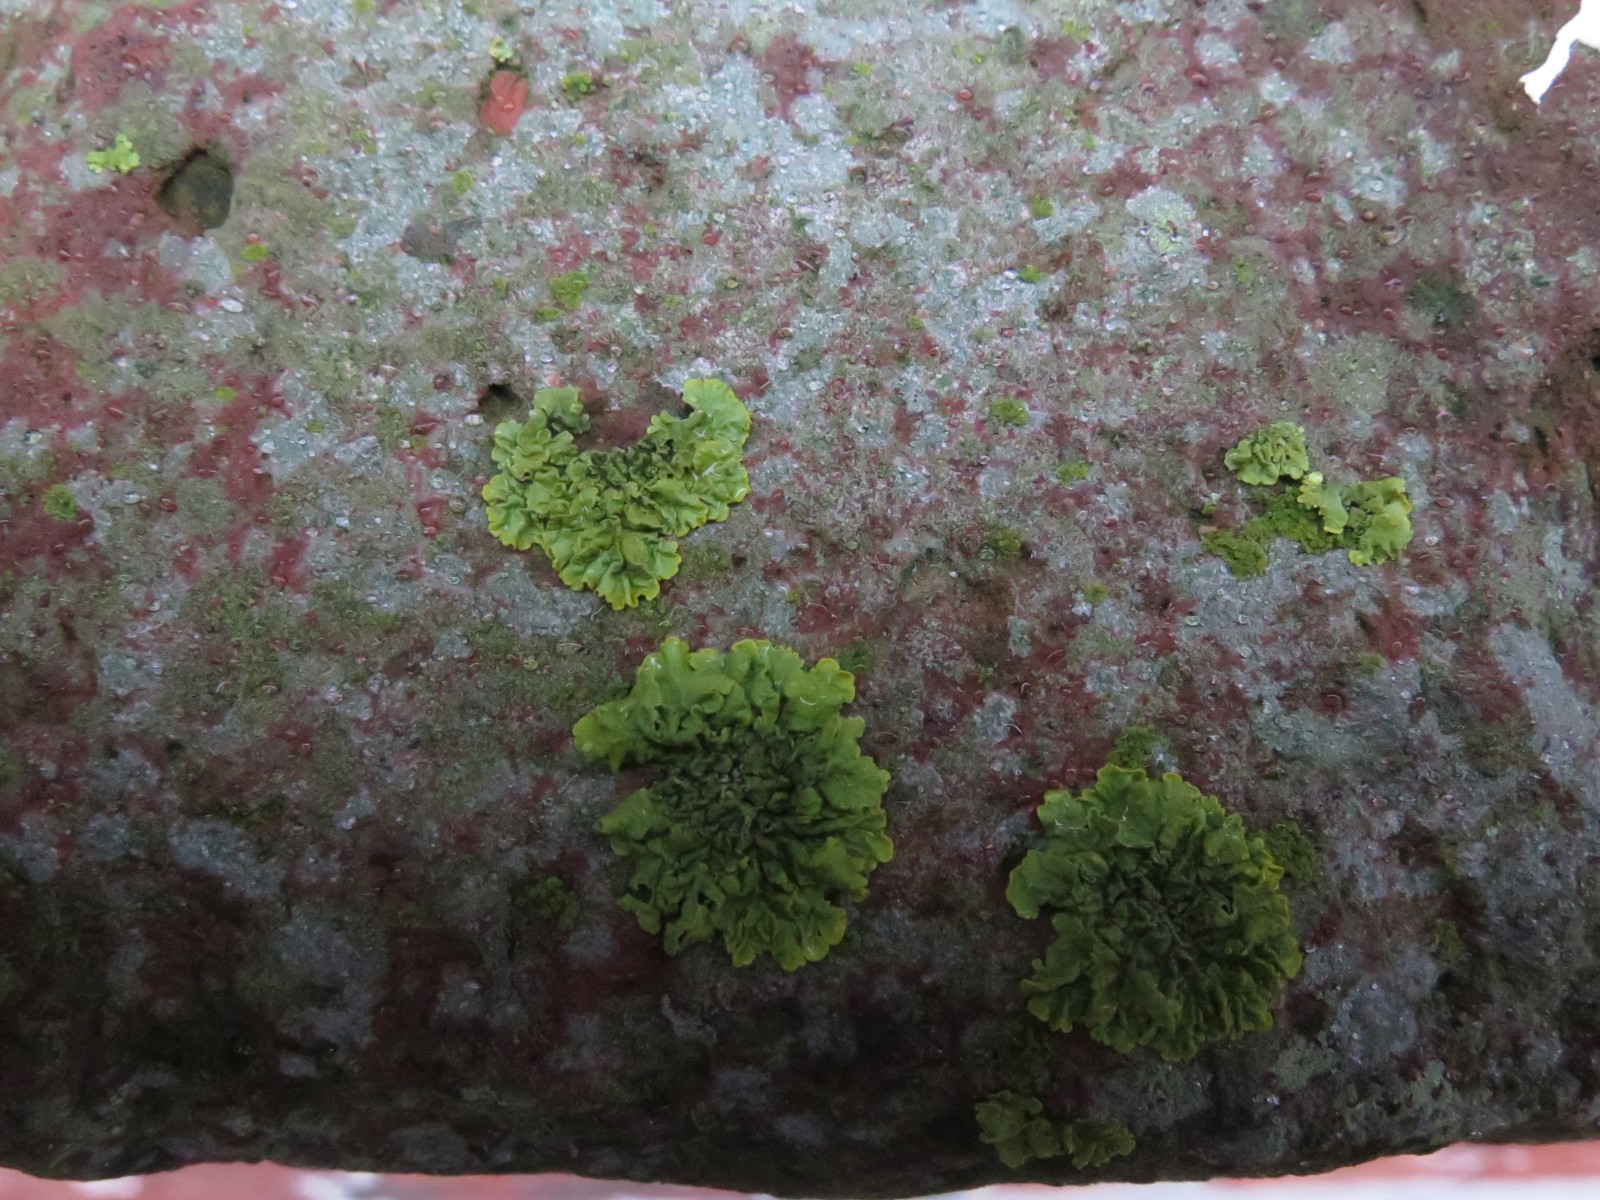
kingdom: Fungi
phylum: Ascomycota
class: Lecanoromycetes
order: Teloschistales
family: Teloschistaceae
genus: Xanthoria
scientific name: Xanthoria parietina
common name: almindelig væggelav
